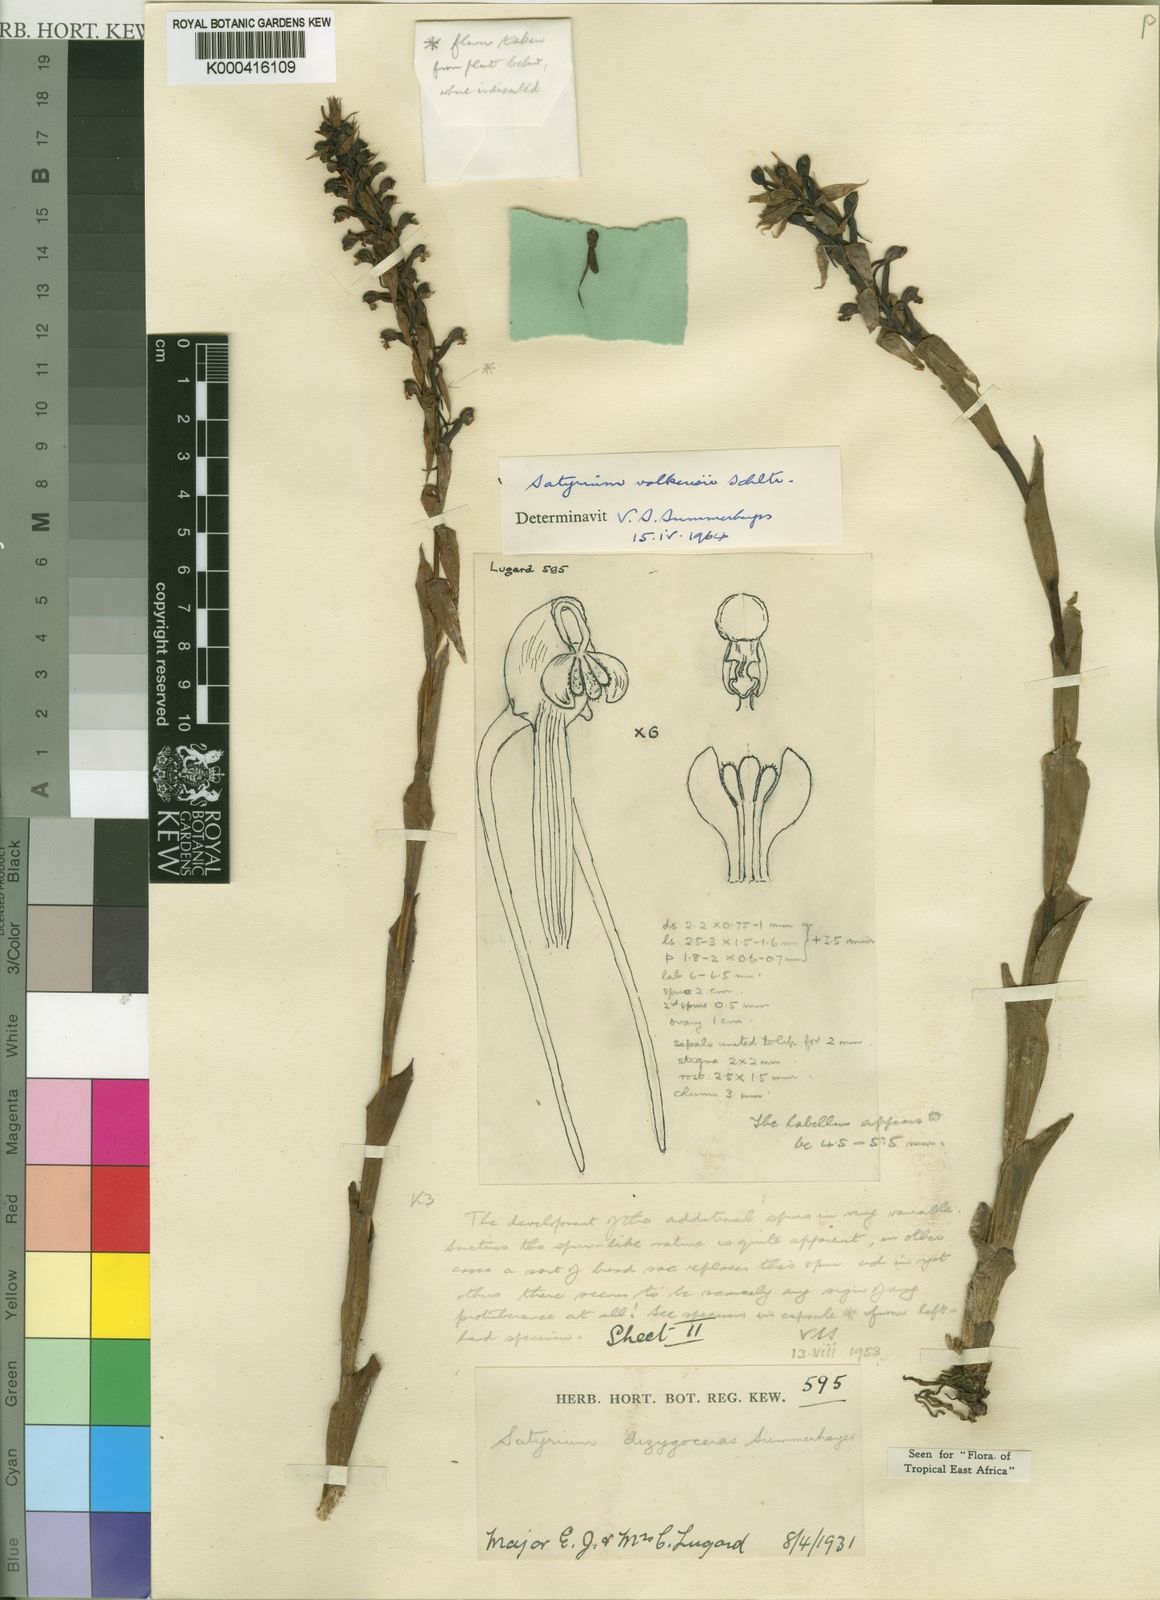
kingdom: Plantae
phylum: Tracheophyta
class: Liliopsida
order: Asparagales
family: Orchidaceae
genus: Satyrium
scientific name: Satyrium volkensii
